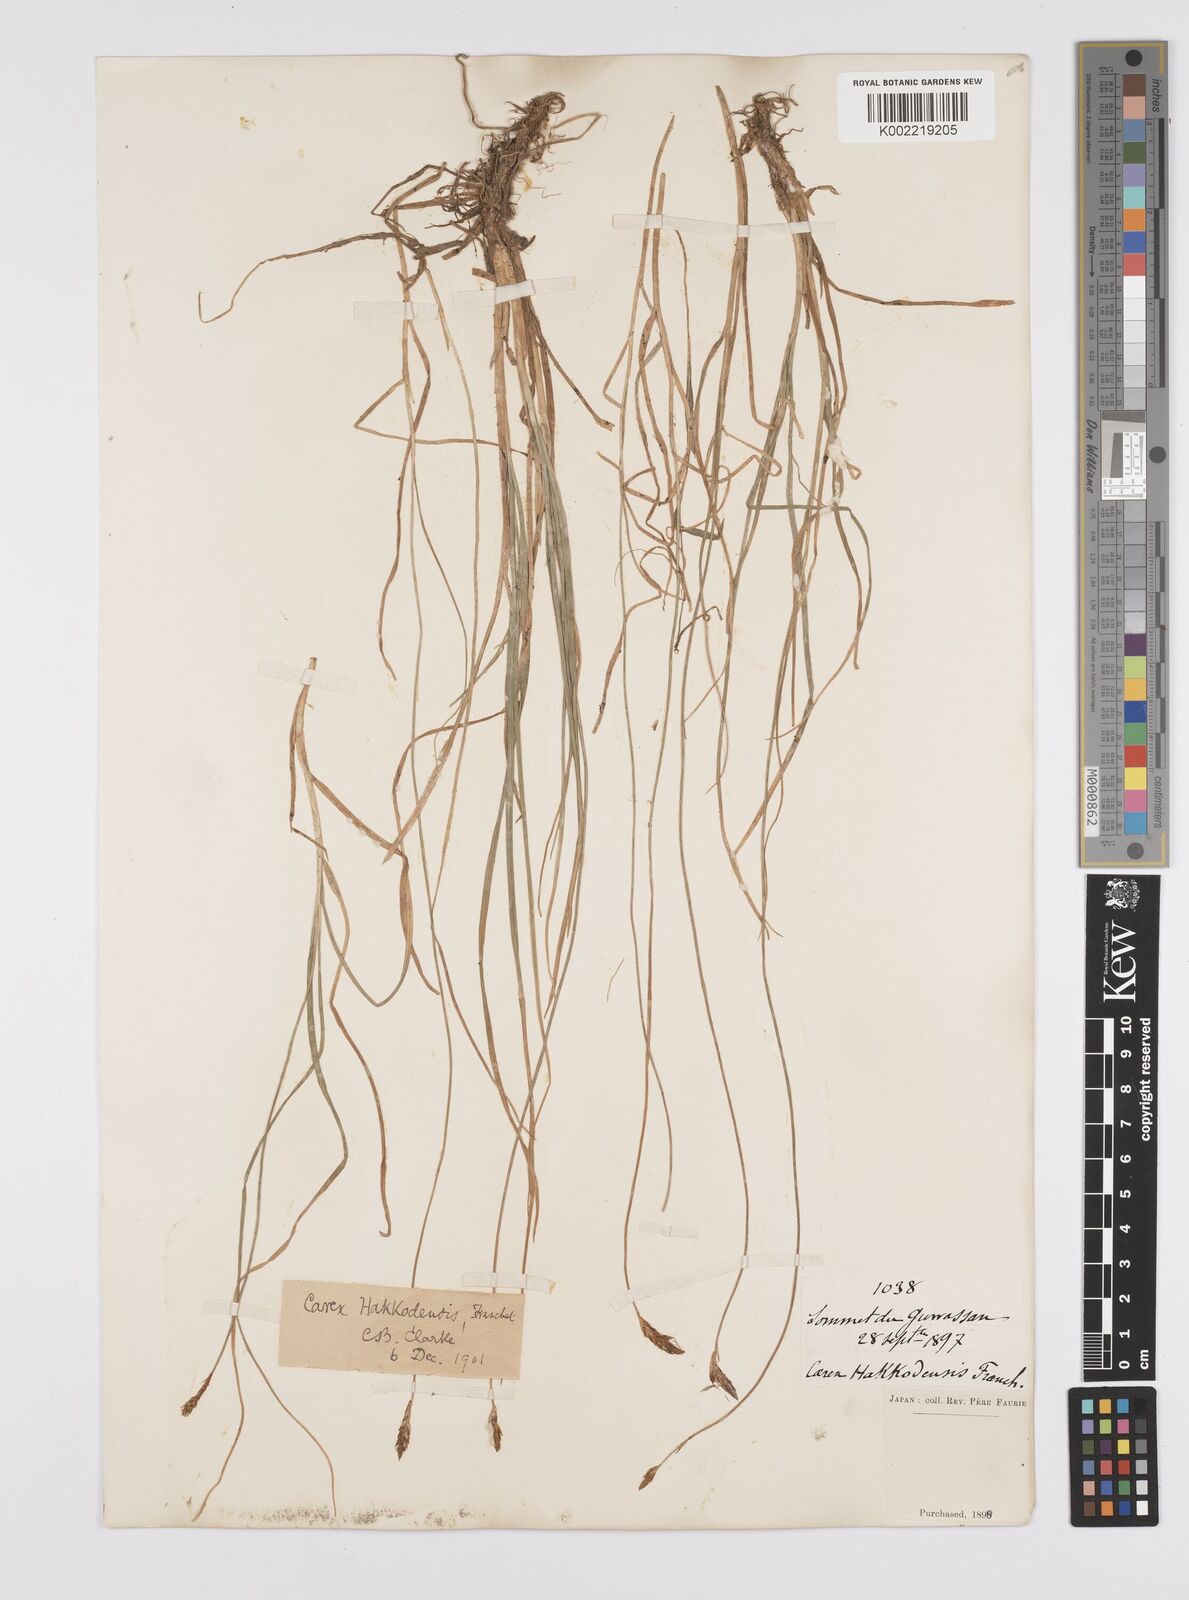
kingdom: Plantae
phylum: Tracheophyta
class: Liliopsida
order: Poales
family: Cyperaceae
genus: Carex
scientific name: Carex hakkodensis
